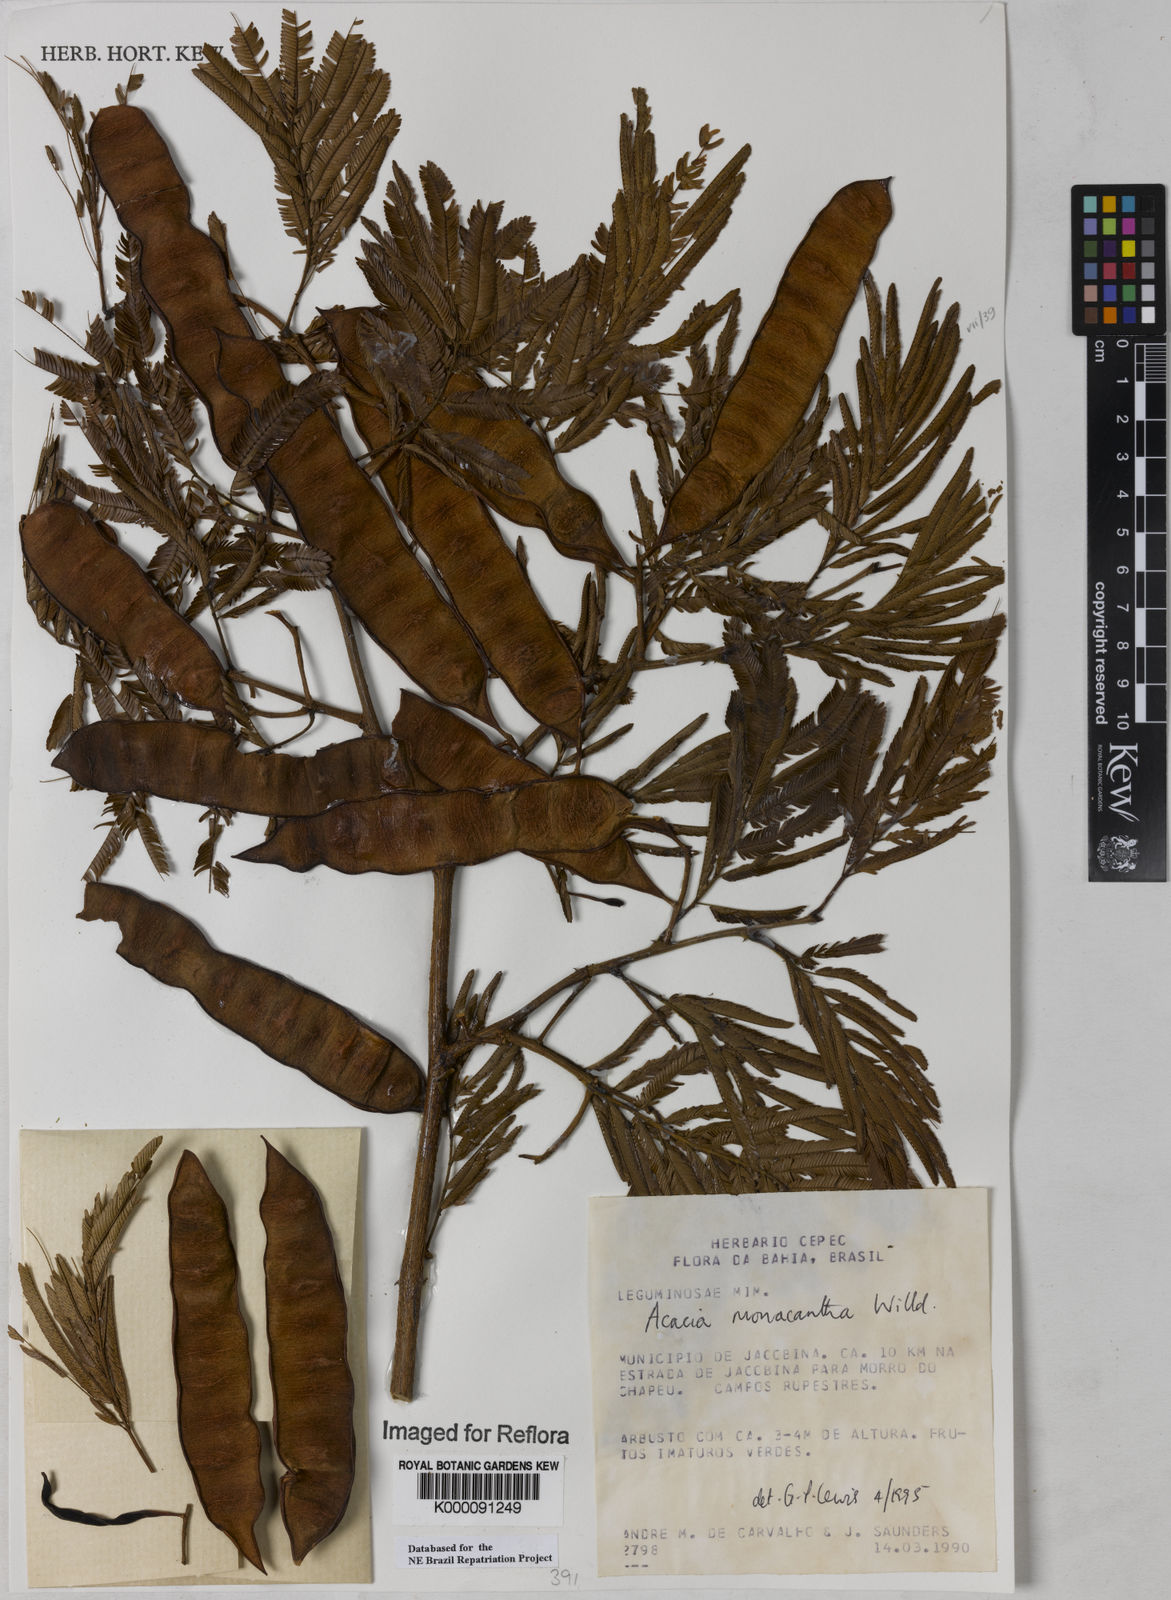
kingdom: Plantae
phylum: Tracheophyta
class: Magnoliopsida
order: Fabales
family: Fabaceae
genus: Senegalia
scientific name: Senegalia monacantha
